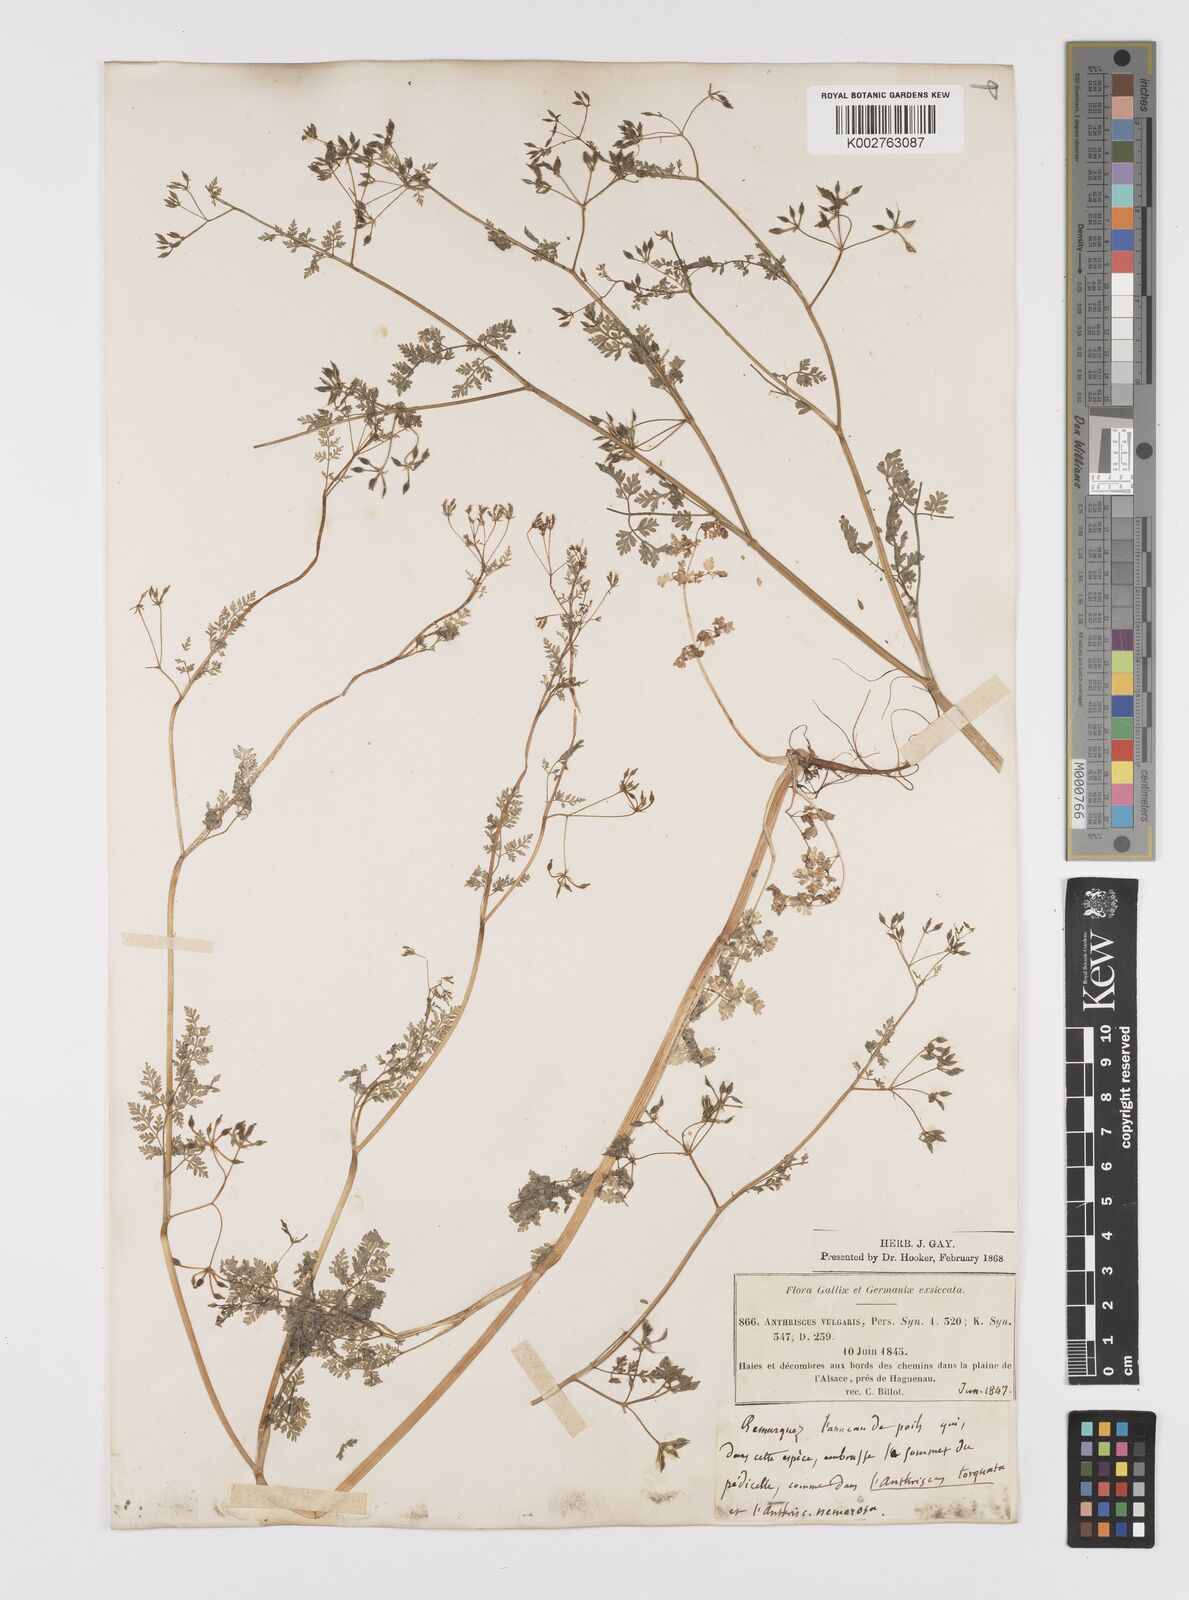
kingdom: Plantae
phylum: Tracheophyta
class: Magnoliopsida
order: Apiales
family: Apiaceae
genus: Anthriscus
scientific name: Anthriscus caucalis
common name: Bur chervil
